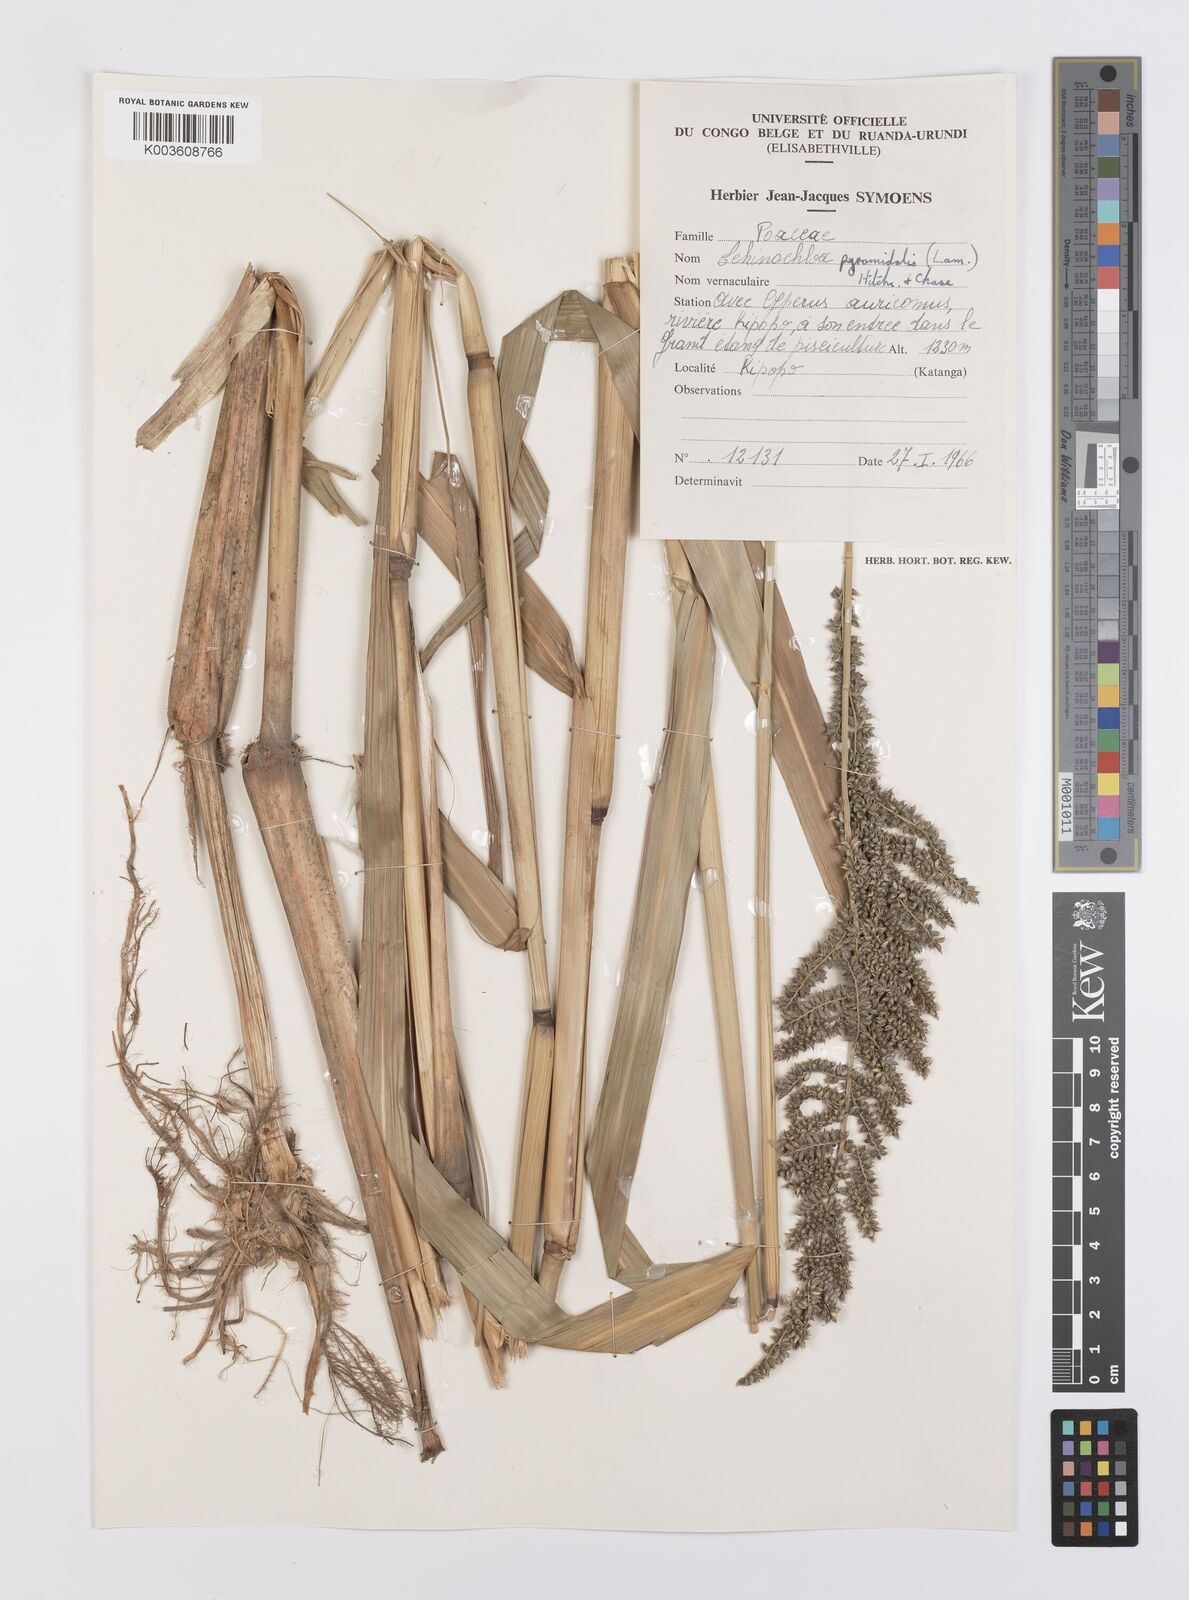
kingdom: Plantae
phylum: Tracheophyta
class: Liliopsida
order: Poales
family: Poaceae
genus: Echinochloa
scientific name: Echinochloa pyramidalis
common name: Antelope grass
